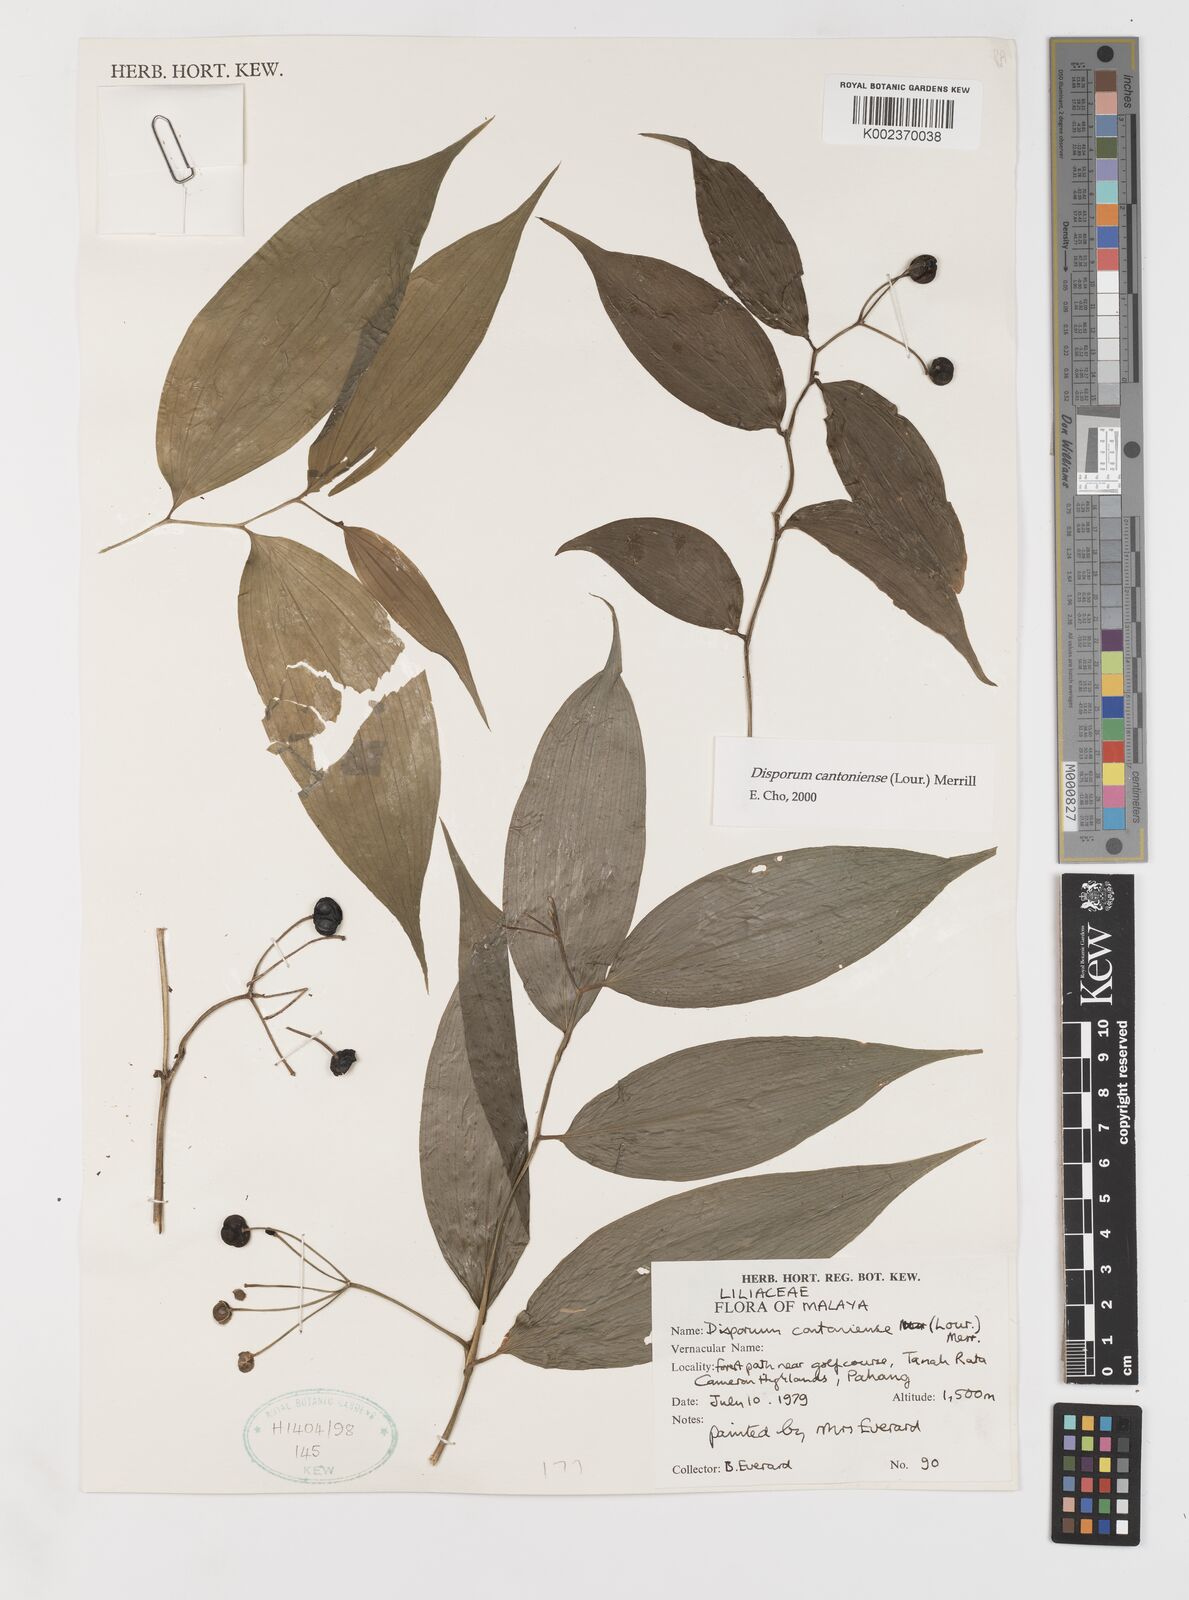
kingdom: Plantae
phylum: Tracheophyta
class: Liliopsida
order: Liliales
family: Colchicaceae
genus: Disporum
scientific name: Disporum cantoniense
